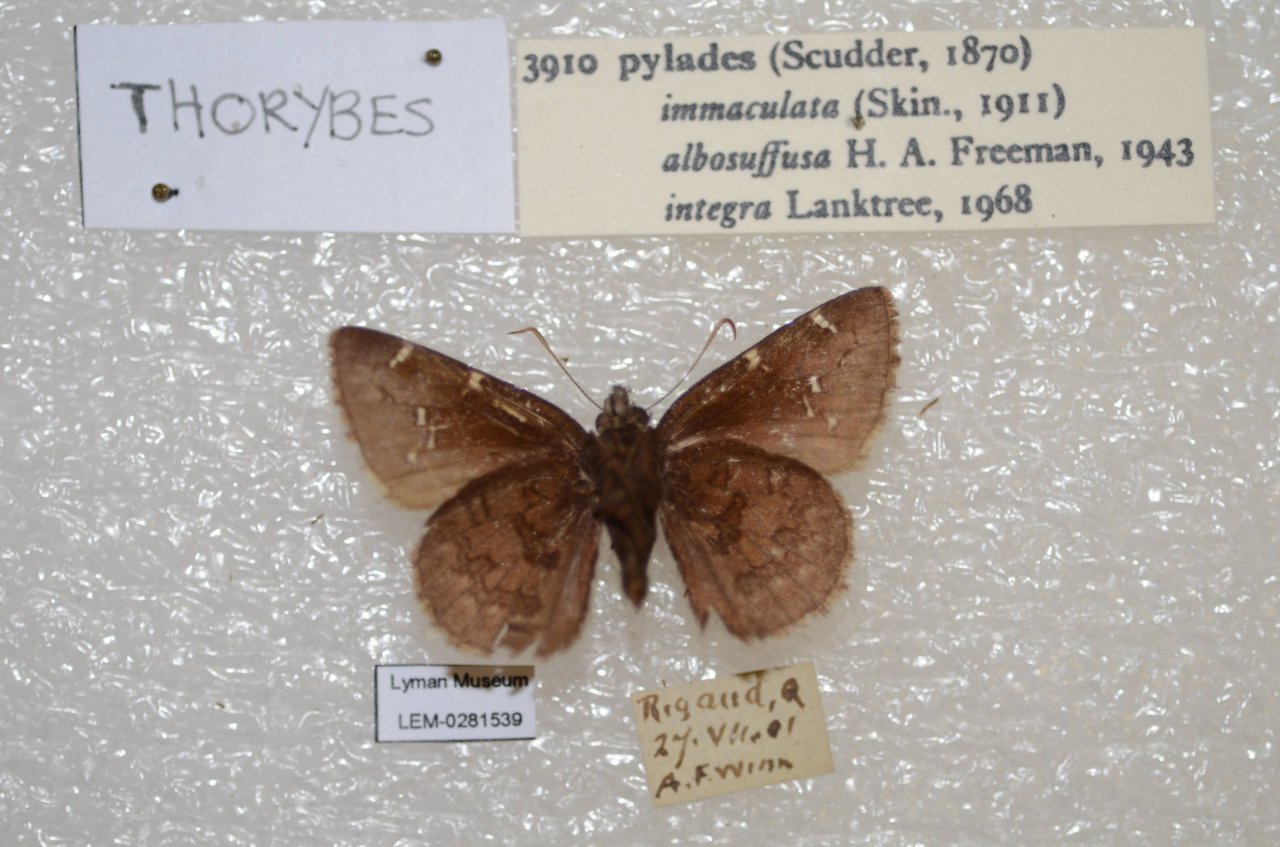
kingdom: Animalia
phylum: Arthropoda
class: Insecta
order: Lepidoptera
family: Hesperiidae
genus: Autochton
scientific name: Autochton
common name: Northern Cloudywing
